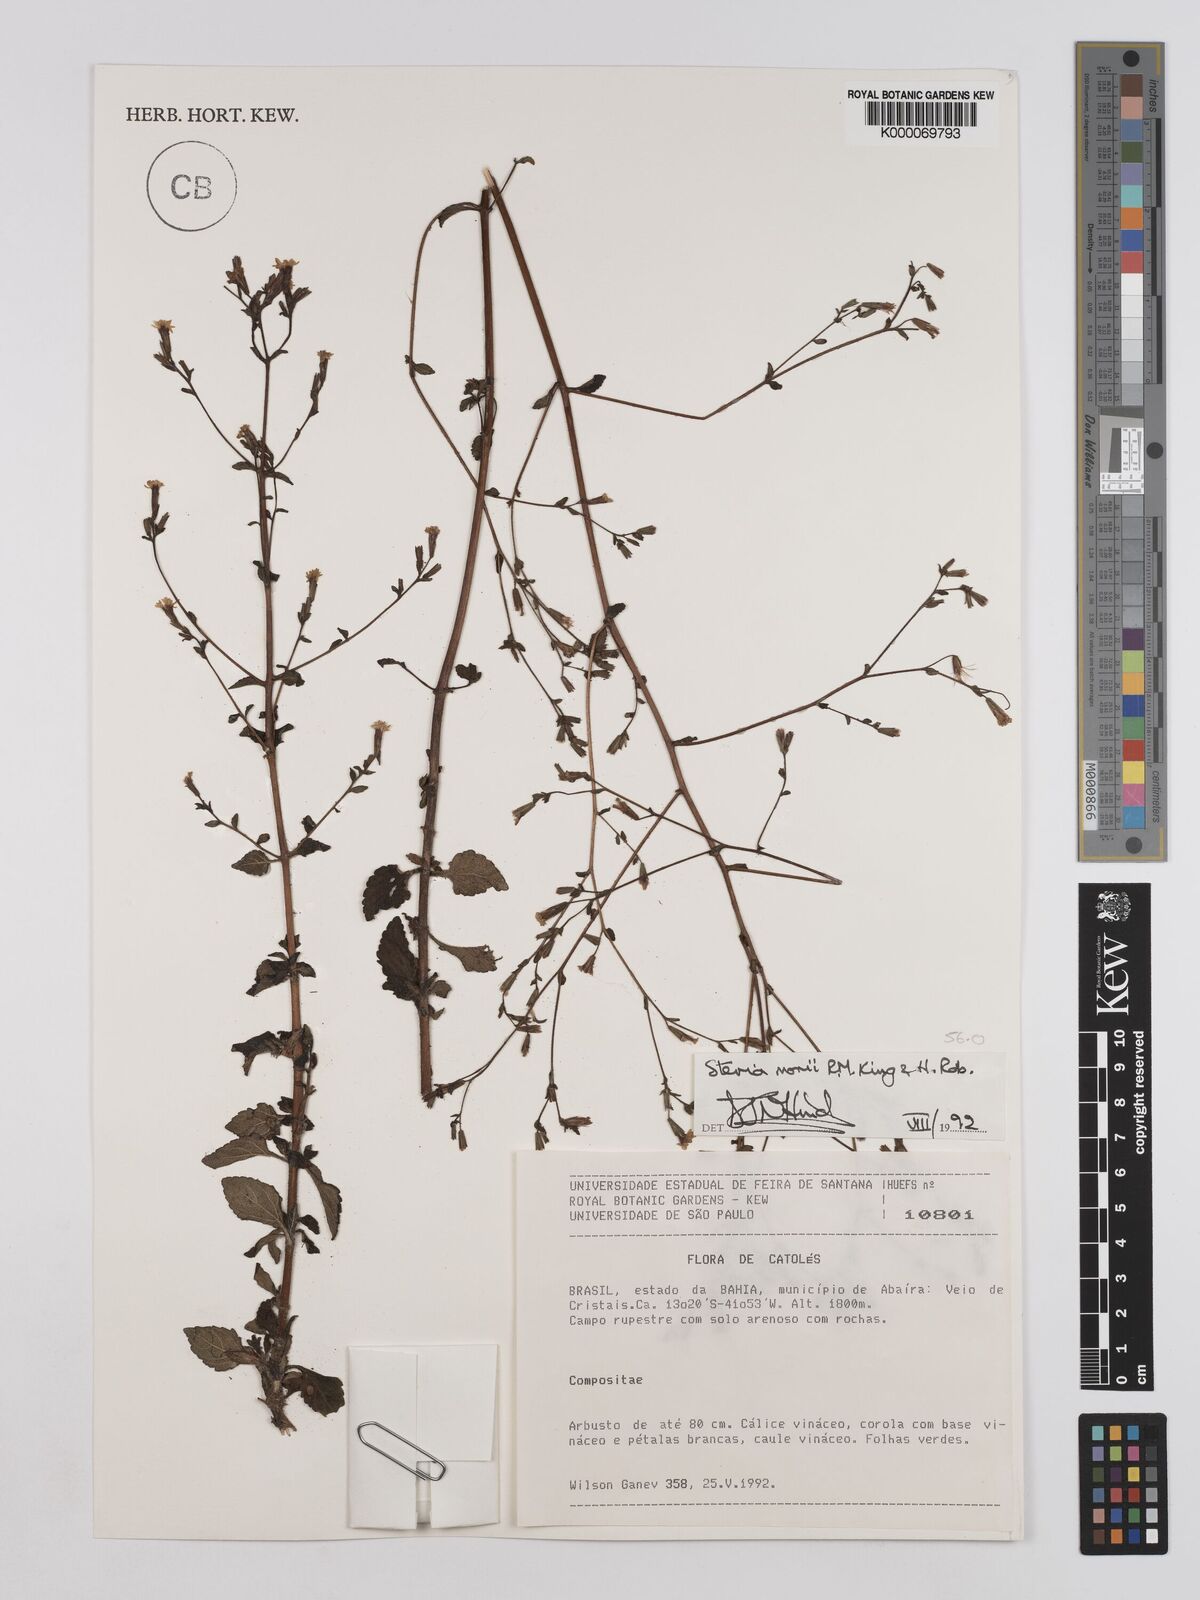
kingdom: Plantae
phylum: Tracheophyta
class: Magnoliopsida
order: Asterales
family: Asteraceae
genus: Stevia
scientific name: Stevia morii
